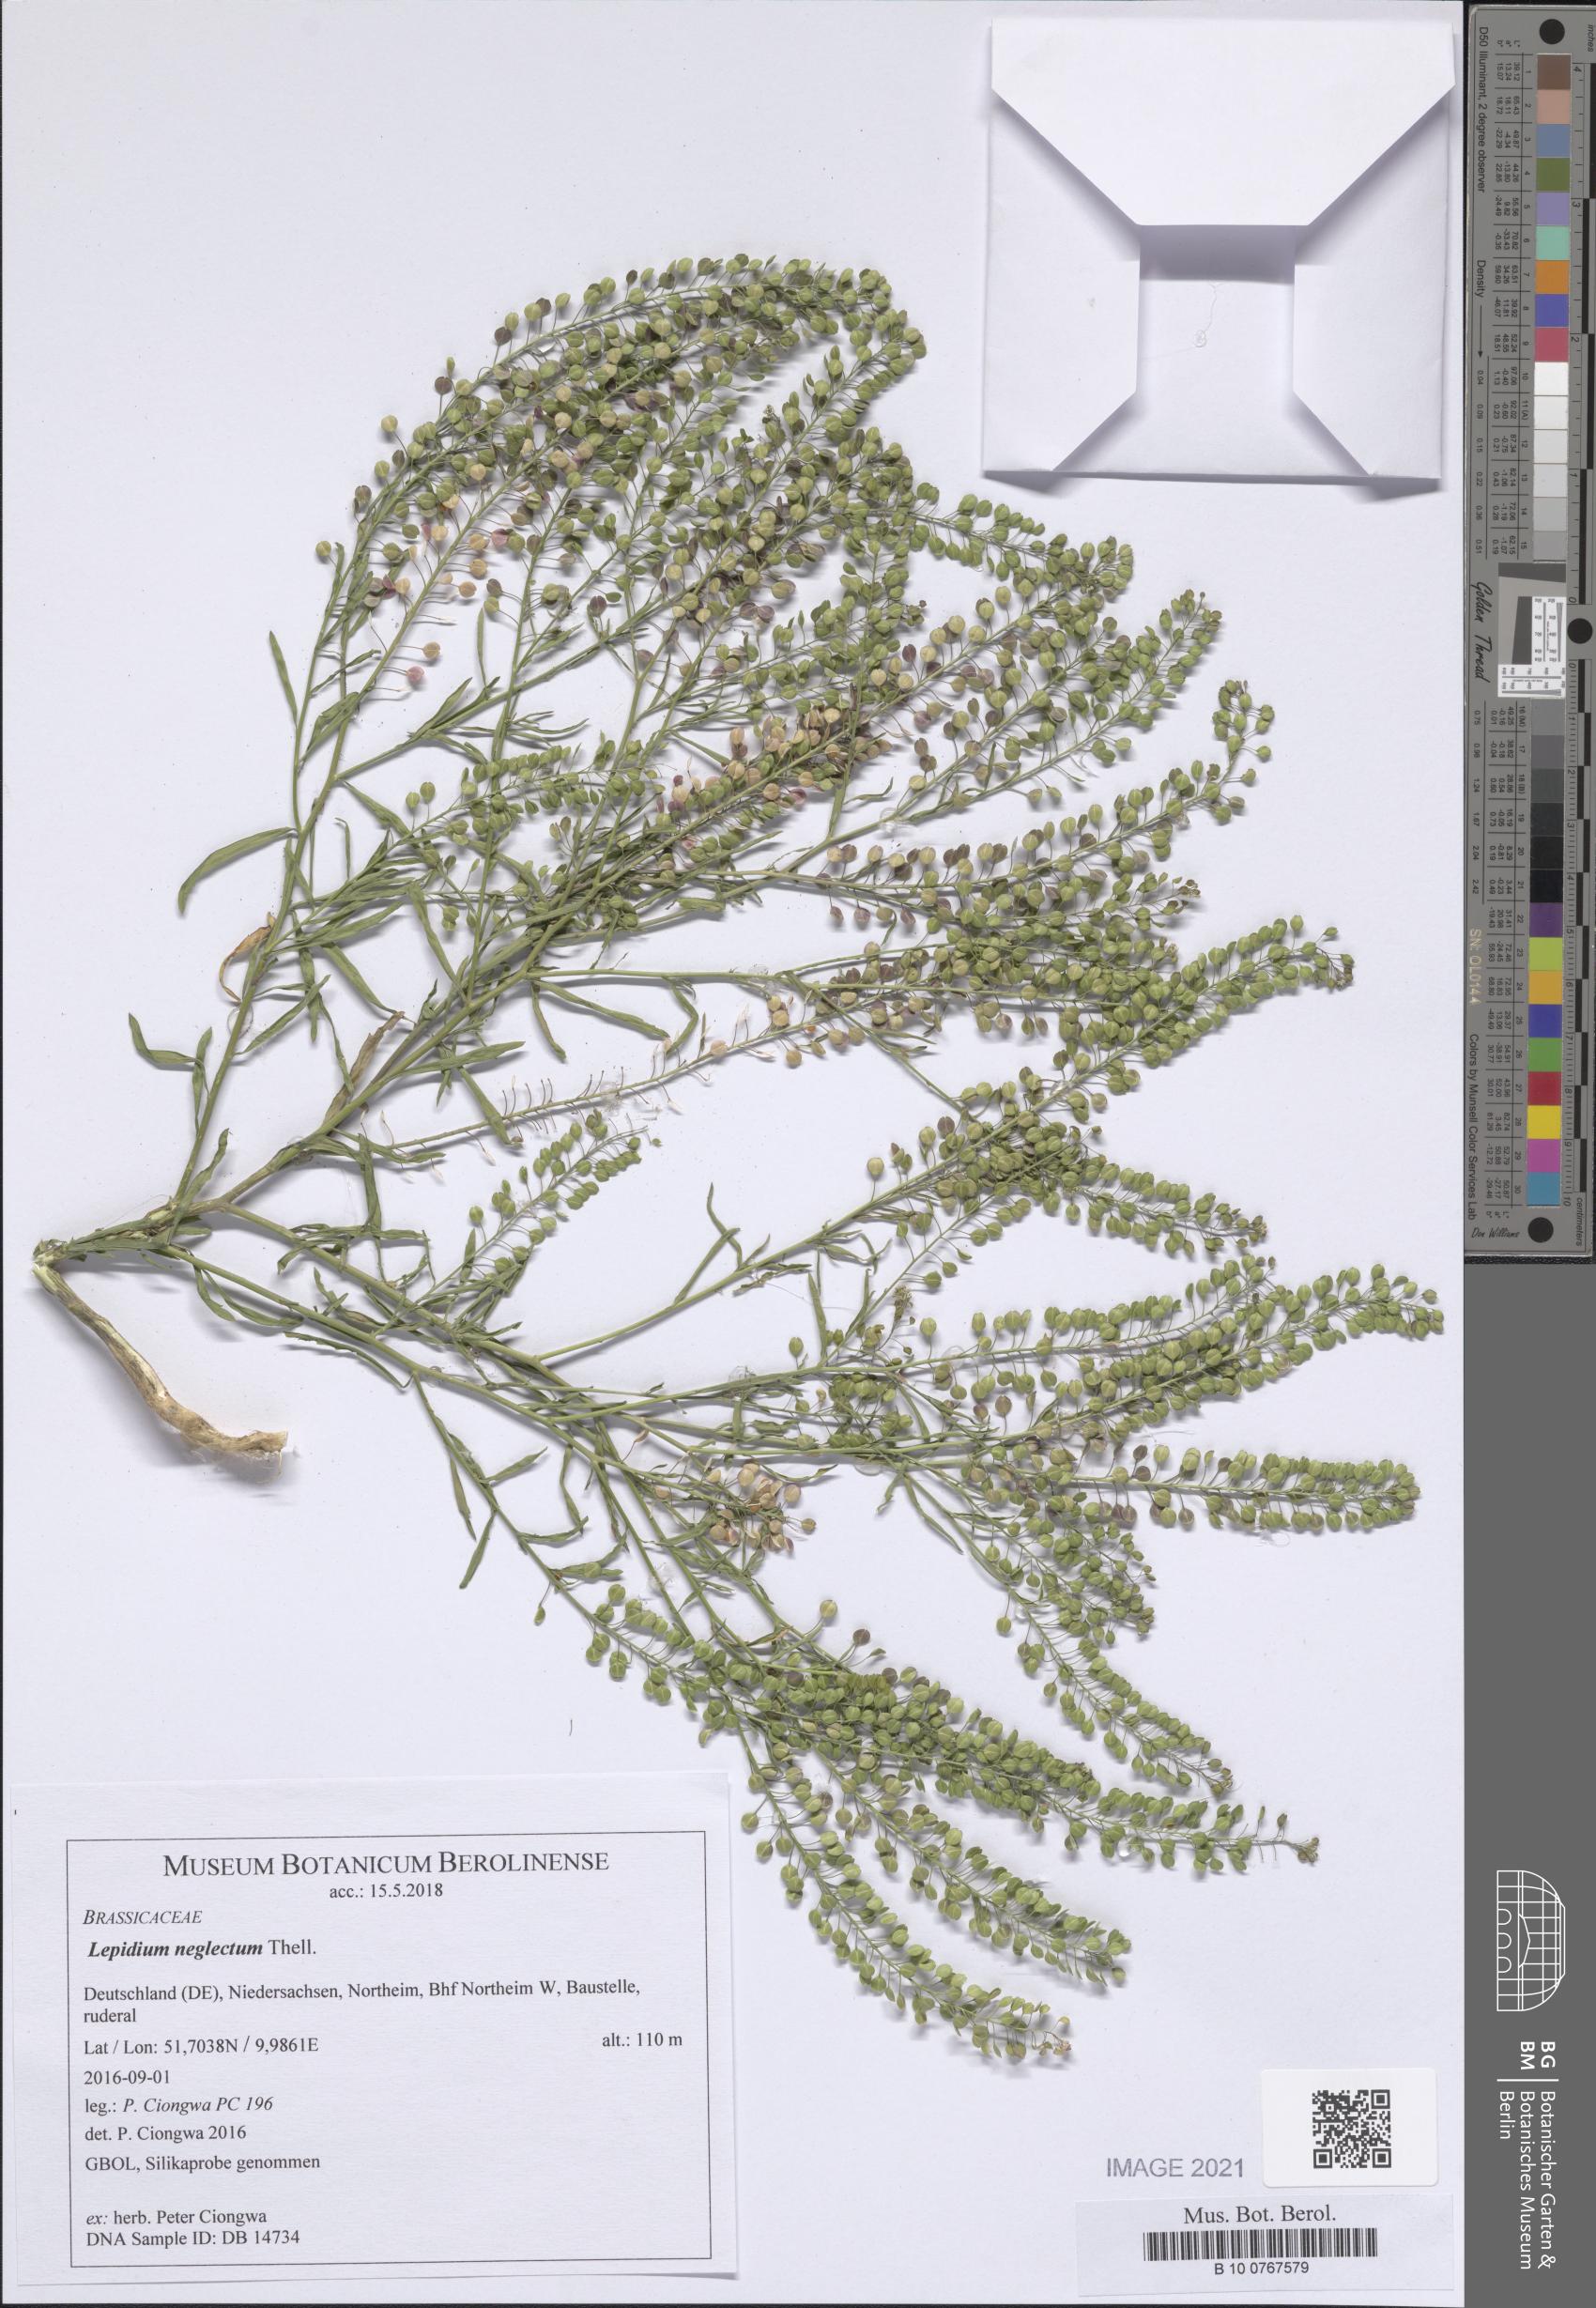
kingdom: Plantae
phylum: Tracheophyta
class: Magnoliopsida
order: Brassicales
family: Brassicaceae
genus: Lepidium
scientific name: Lepidium densiflorum
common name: Miner's pepperwort
